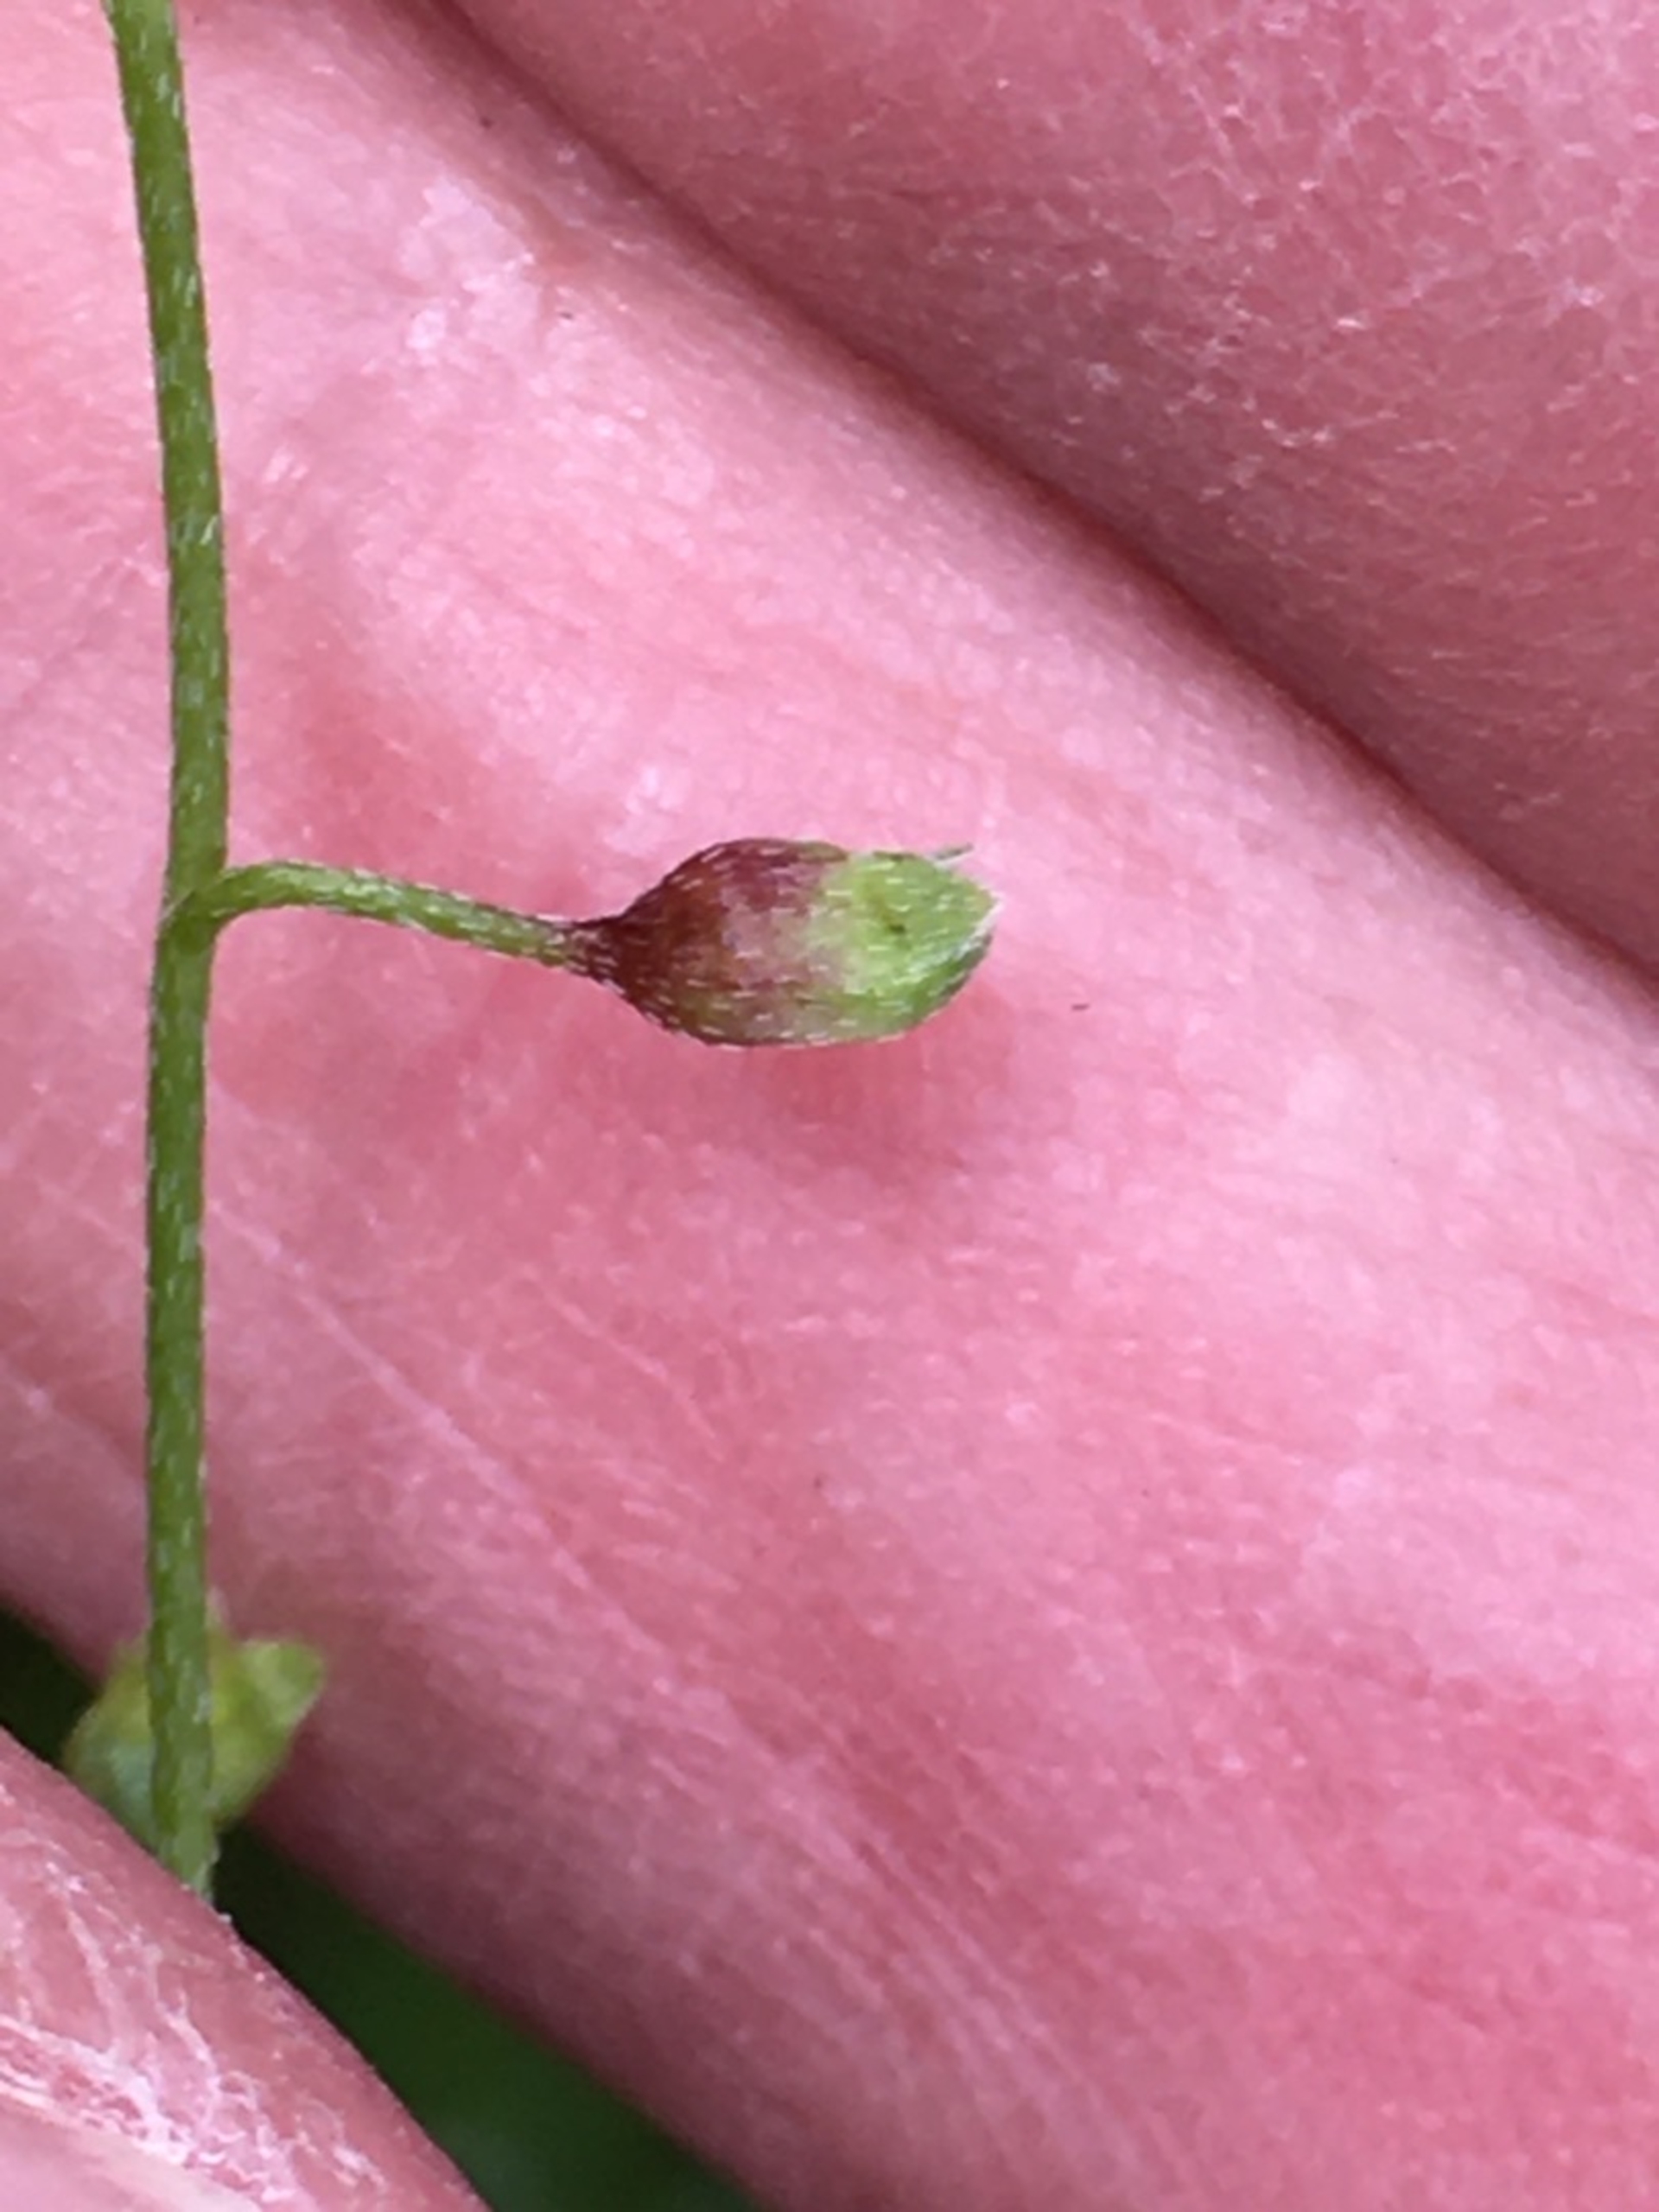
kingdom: Animalia
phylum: Arthropoda
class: Insecta
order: Diptera
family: Cecidomyiidae
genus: Dasineura
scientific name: Dasineura myosotidis
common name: Forglemmigejgalmyg
